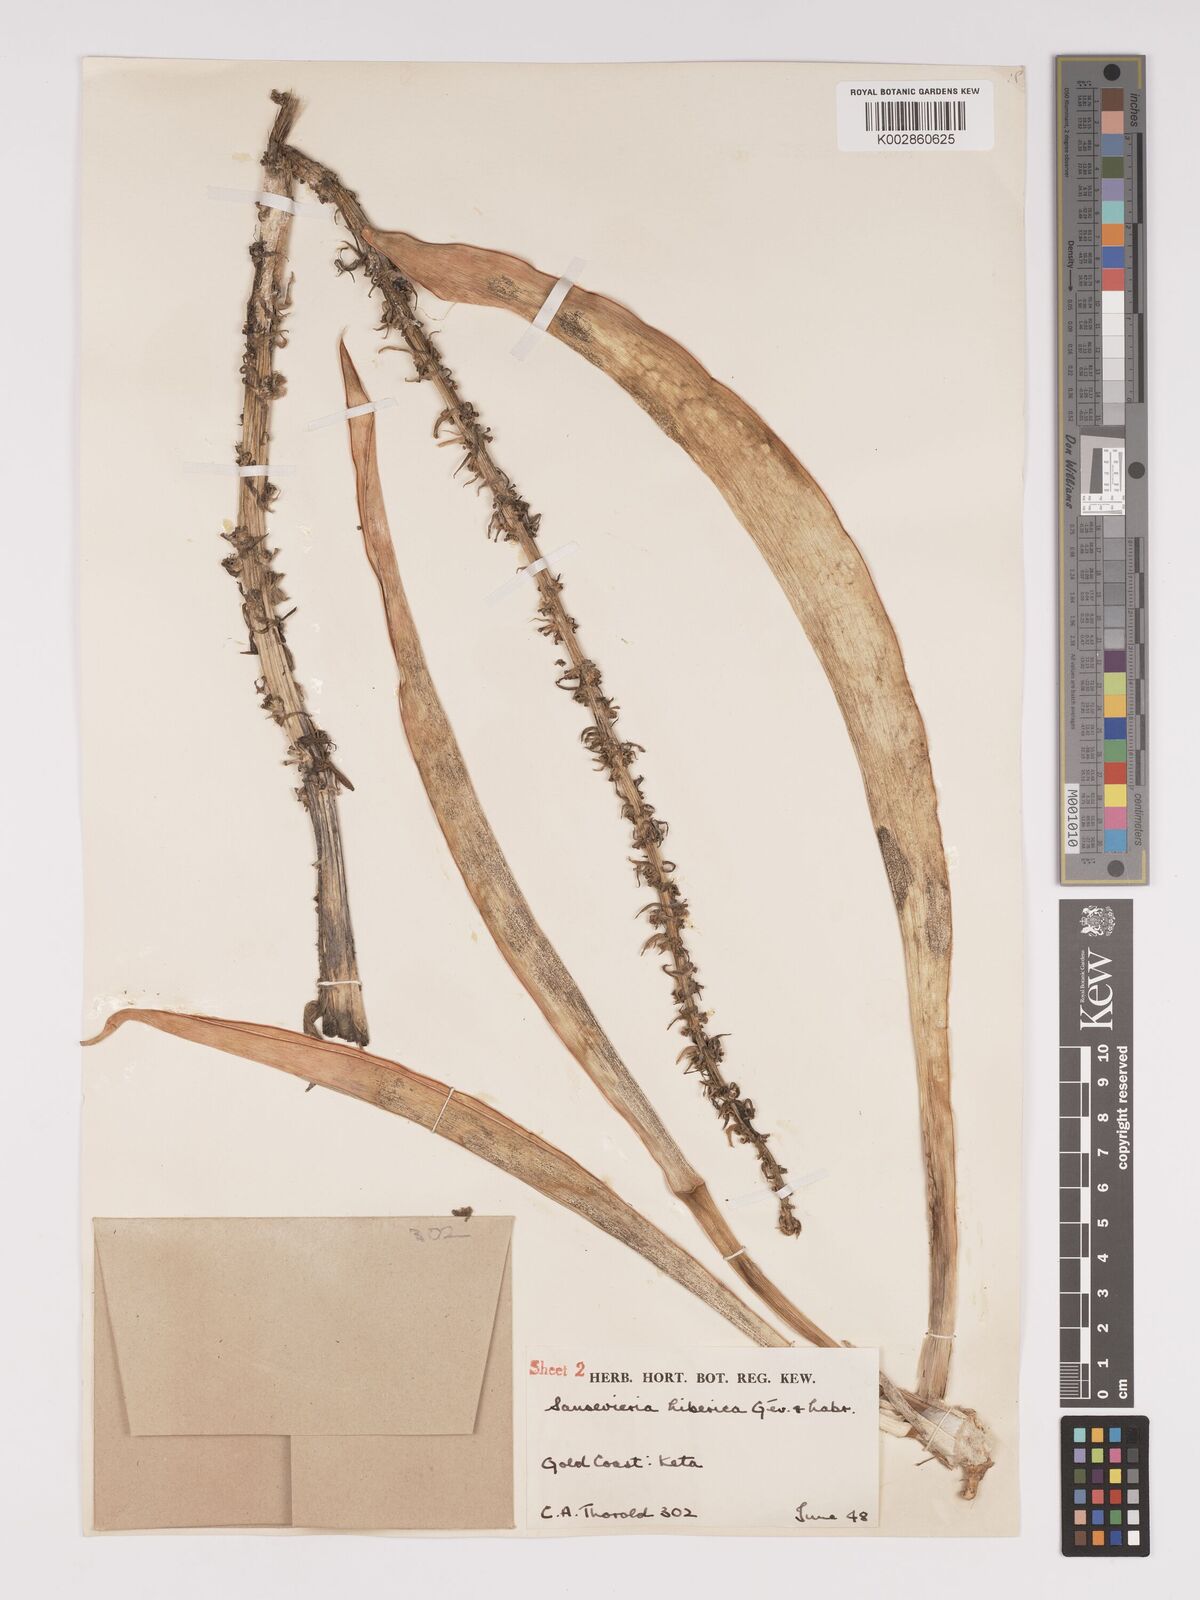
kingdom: Plantae
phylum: Tracheophyta
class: Liliopsida
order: Asparagales
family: Asparagaceae
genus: Dracaena
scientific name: Dracaena liberica
